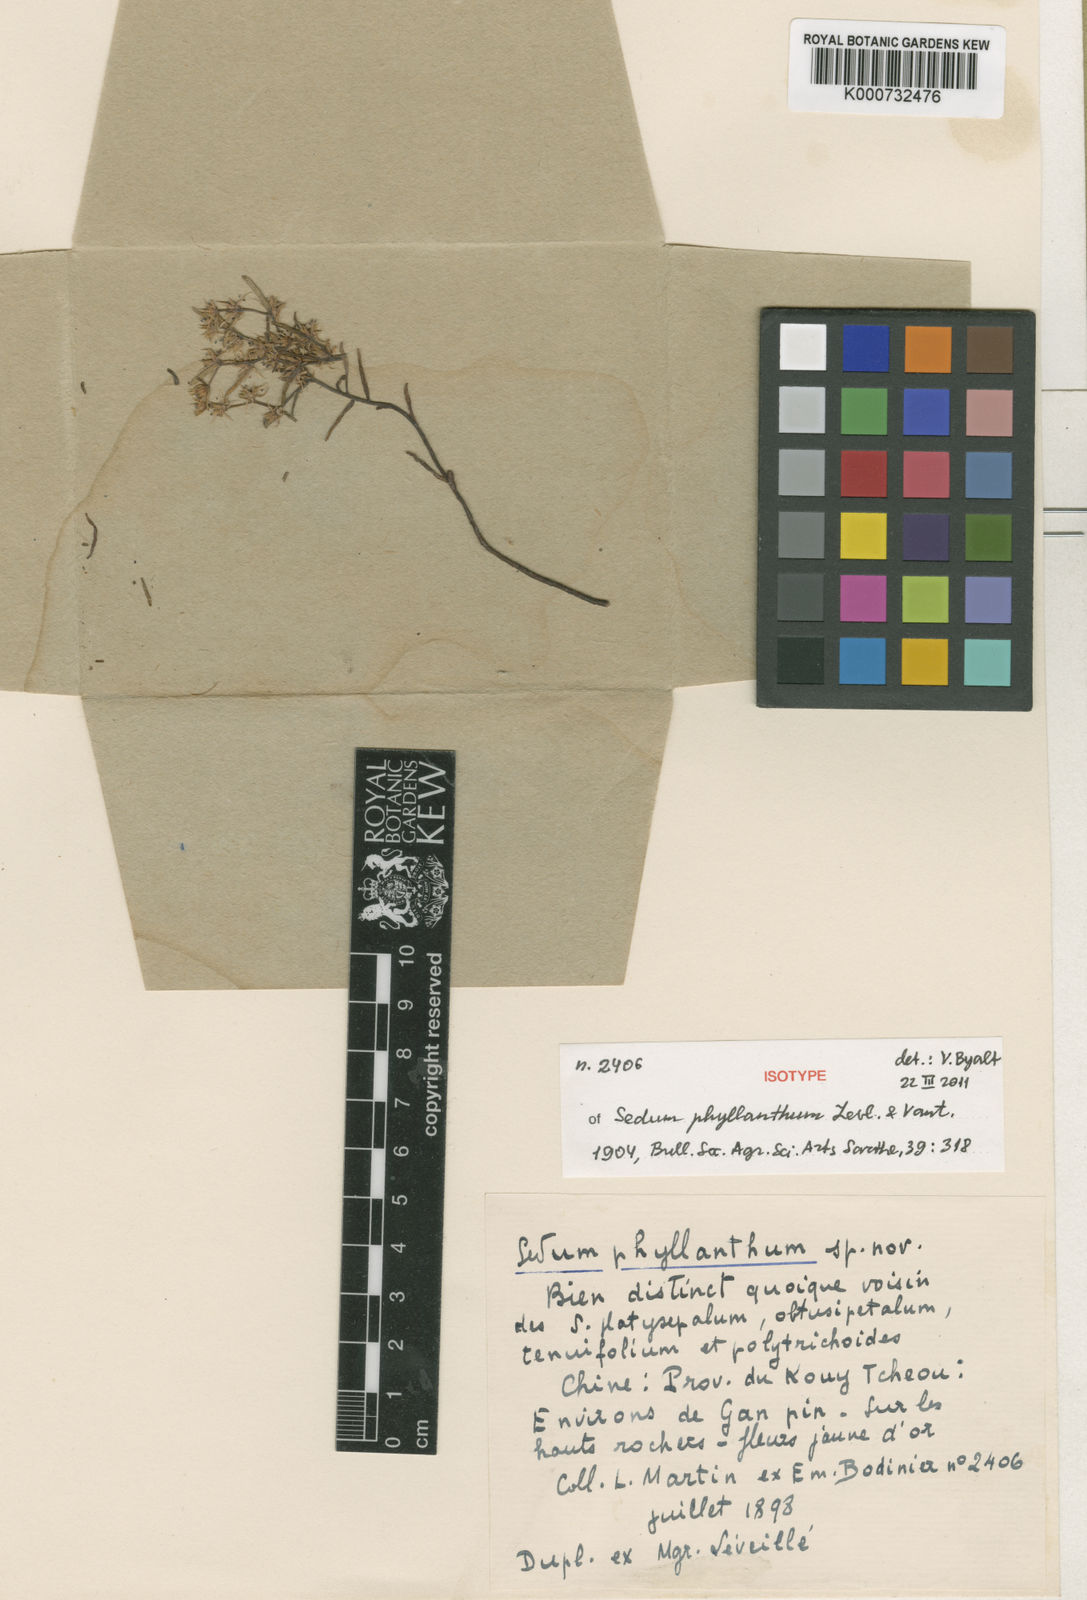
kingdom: Plantae
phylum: Tracheophyta
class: Magnoliopsida
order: Saxifragales
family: Crassulaceae
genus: Sedum
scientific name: Sedum
